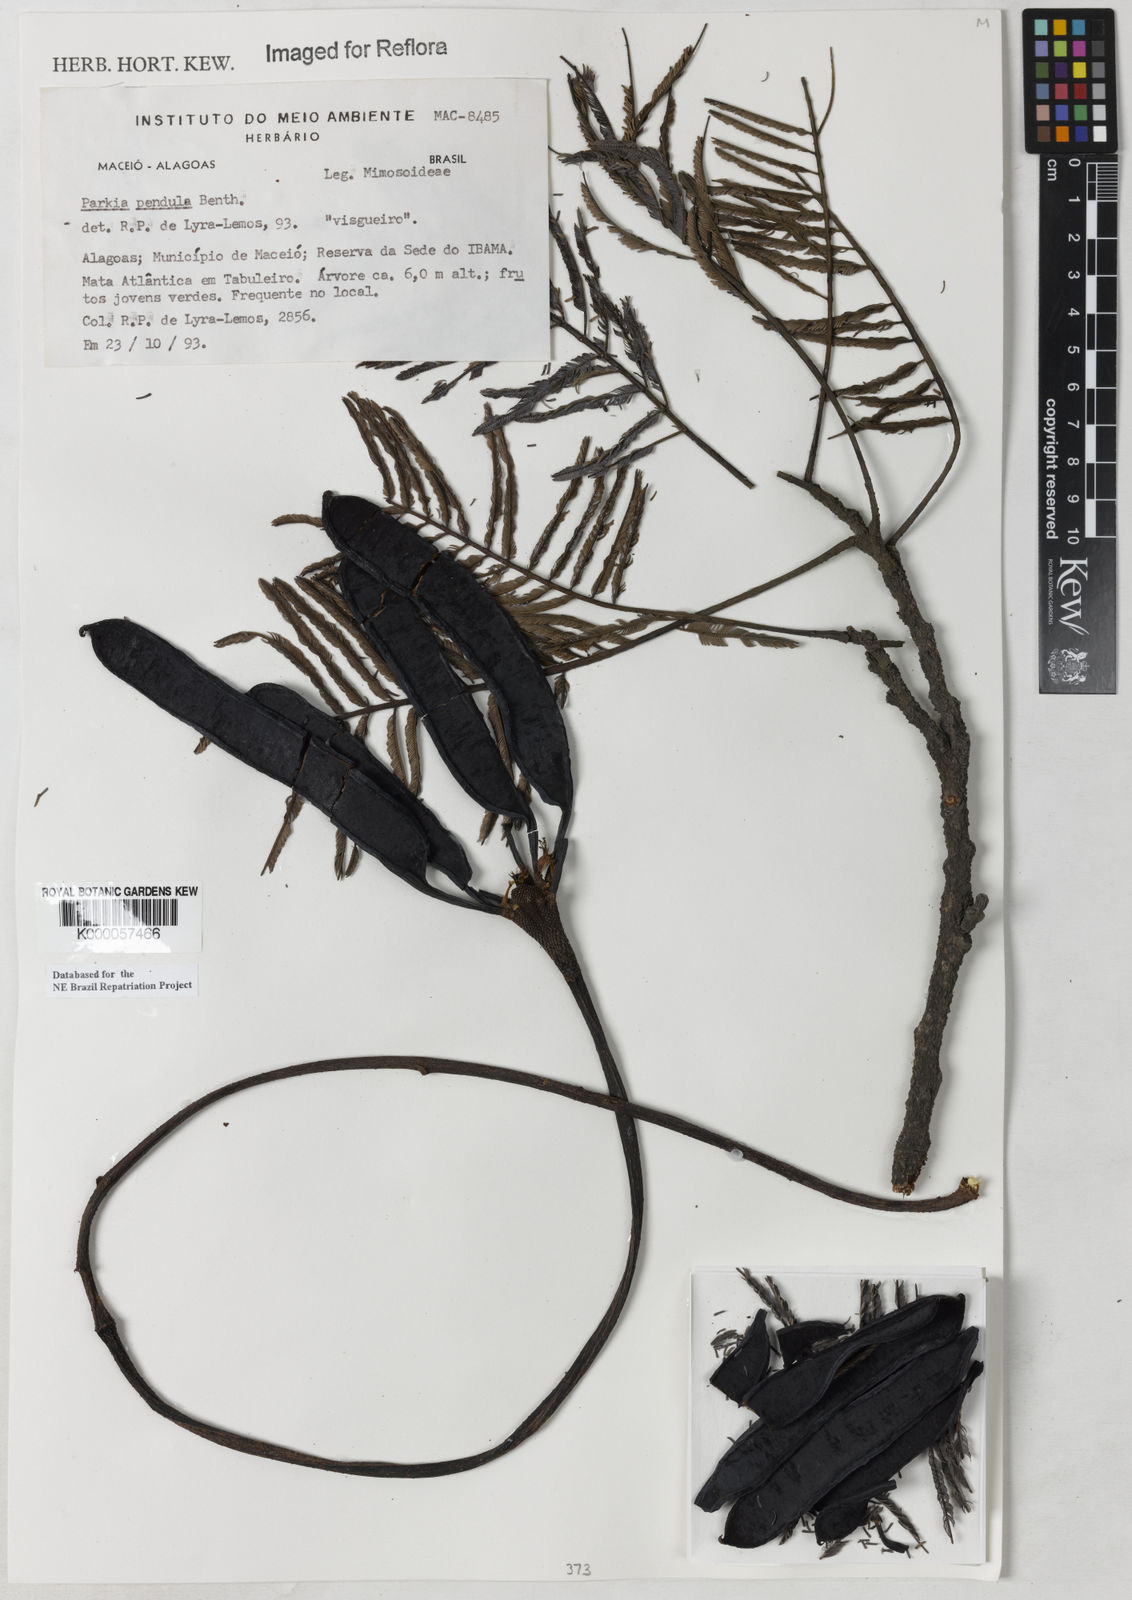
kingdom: Plantae
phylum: Tracheophyta
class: Magnoliopsida
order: Fabales
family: Fabaceae
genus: Parkia
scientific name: Parkia
